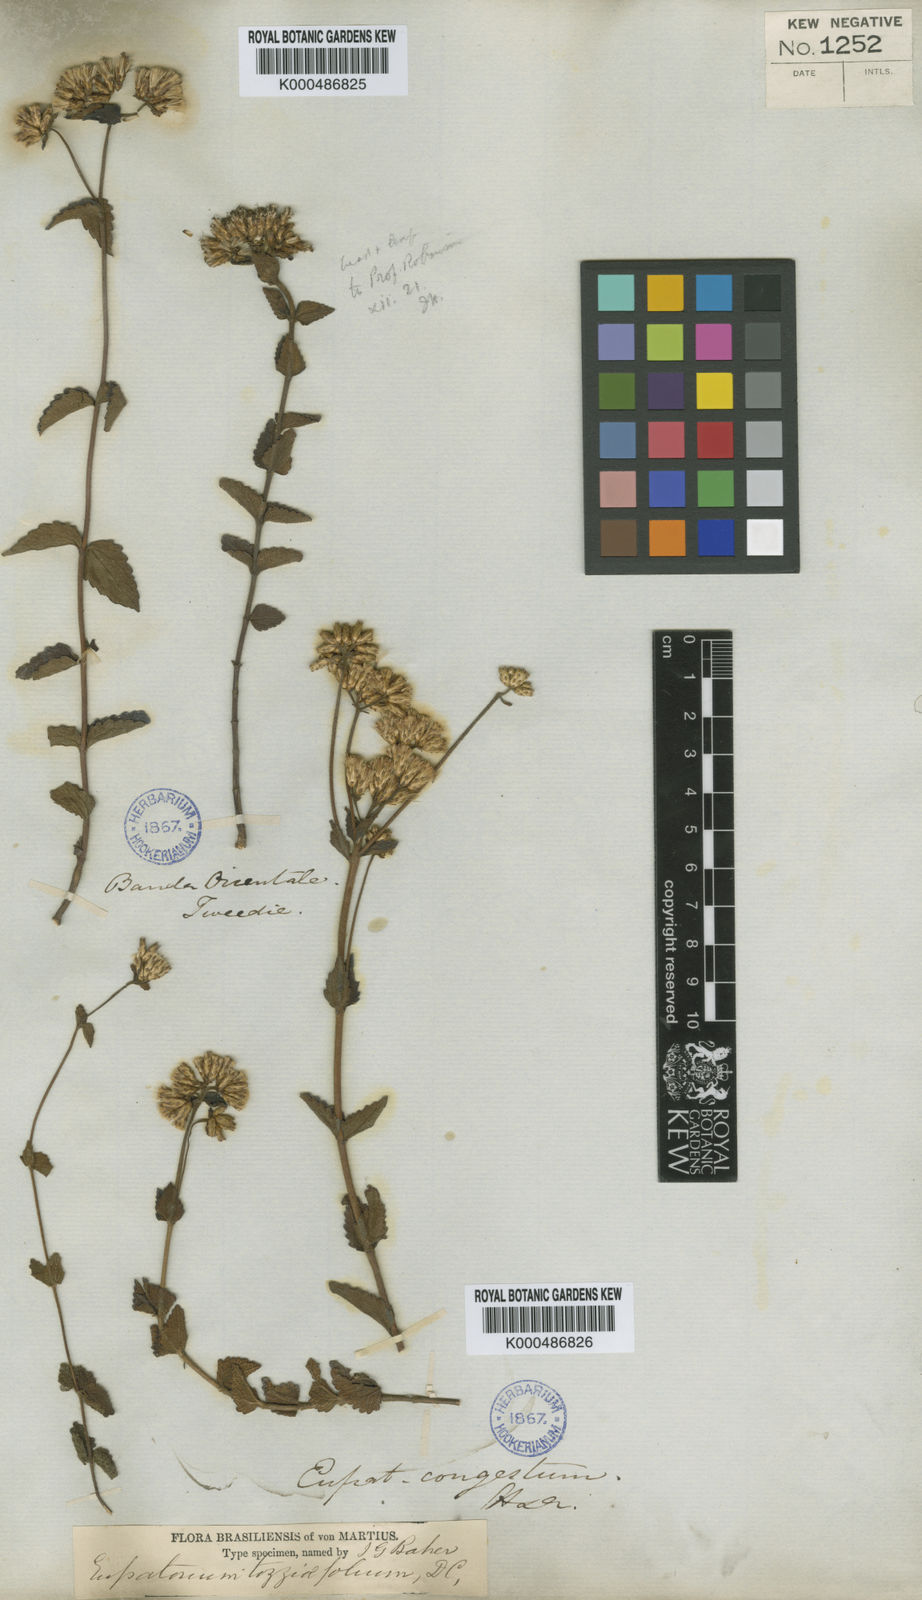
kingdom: Plantae
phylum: Tracheophyta
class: Magnoliopsida
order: Asterales
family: Asteraceae
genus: Chromolaena
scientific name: Chromolaena congesta
